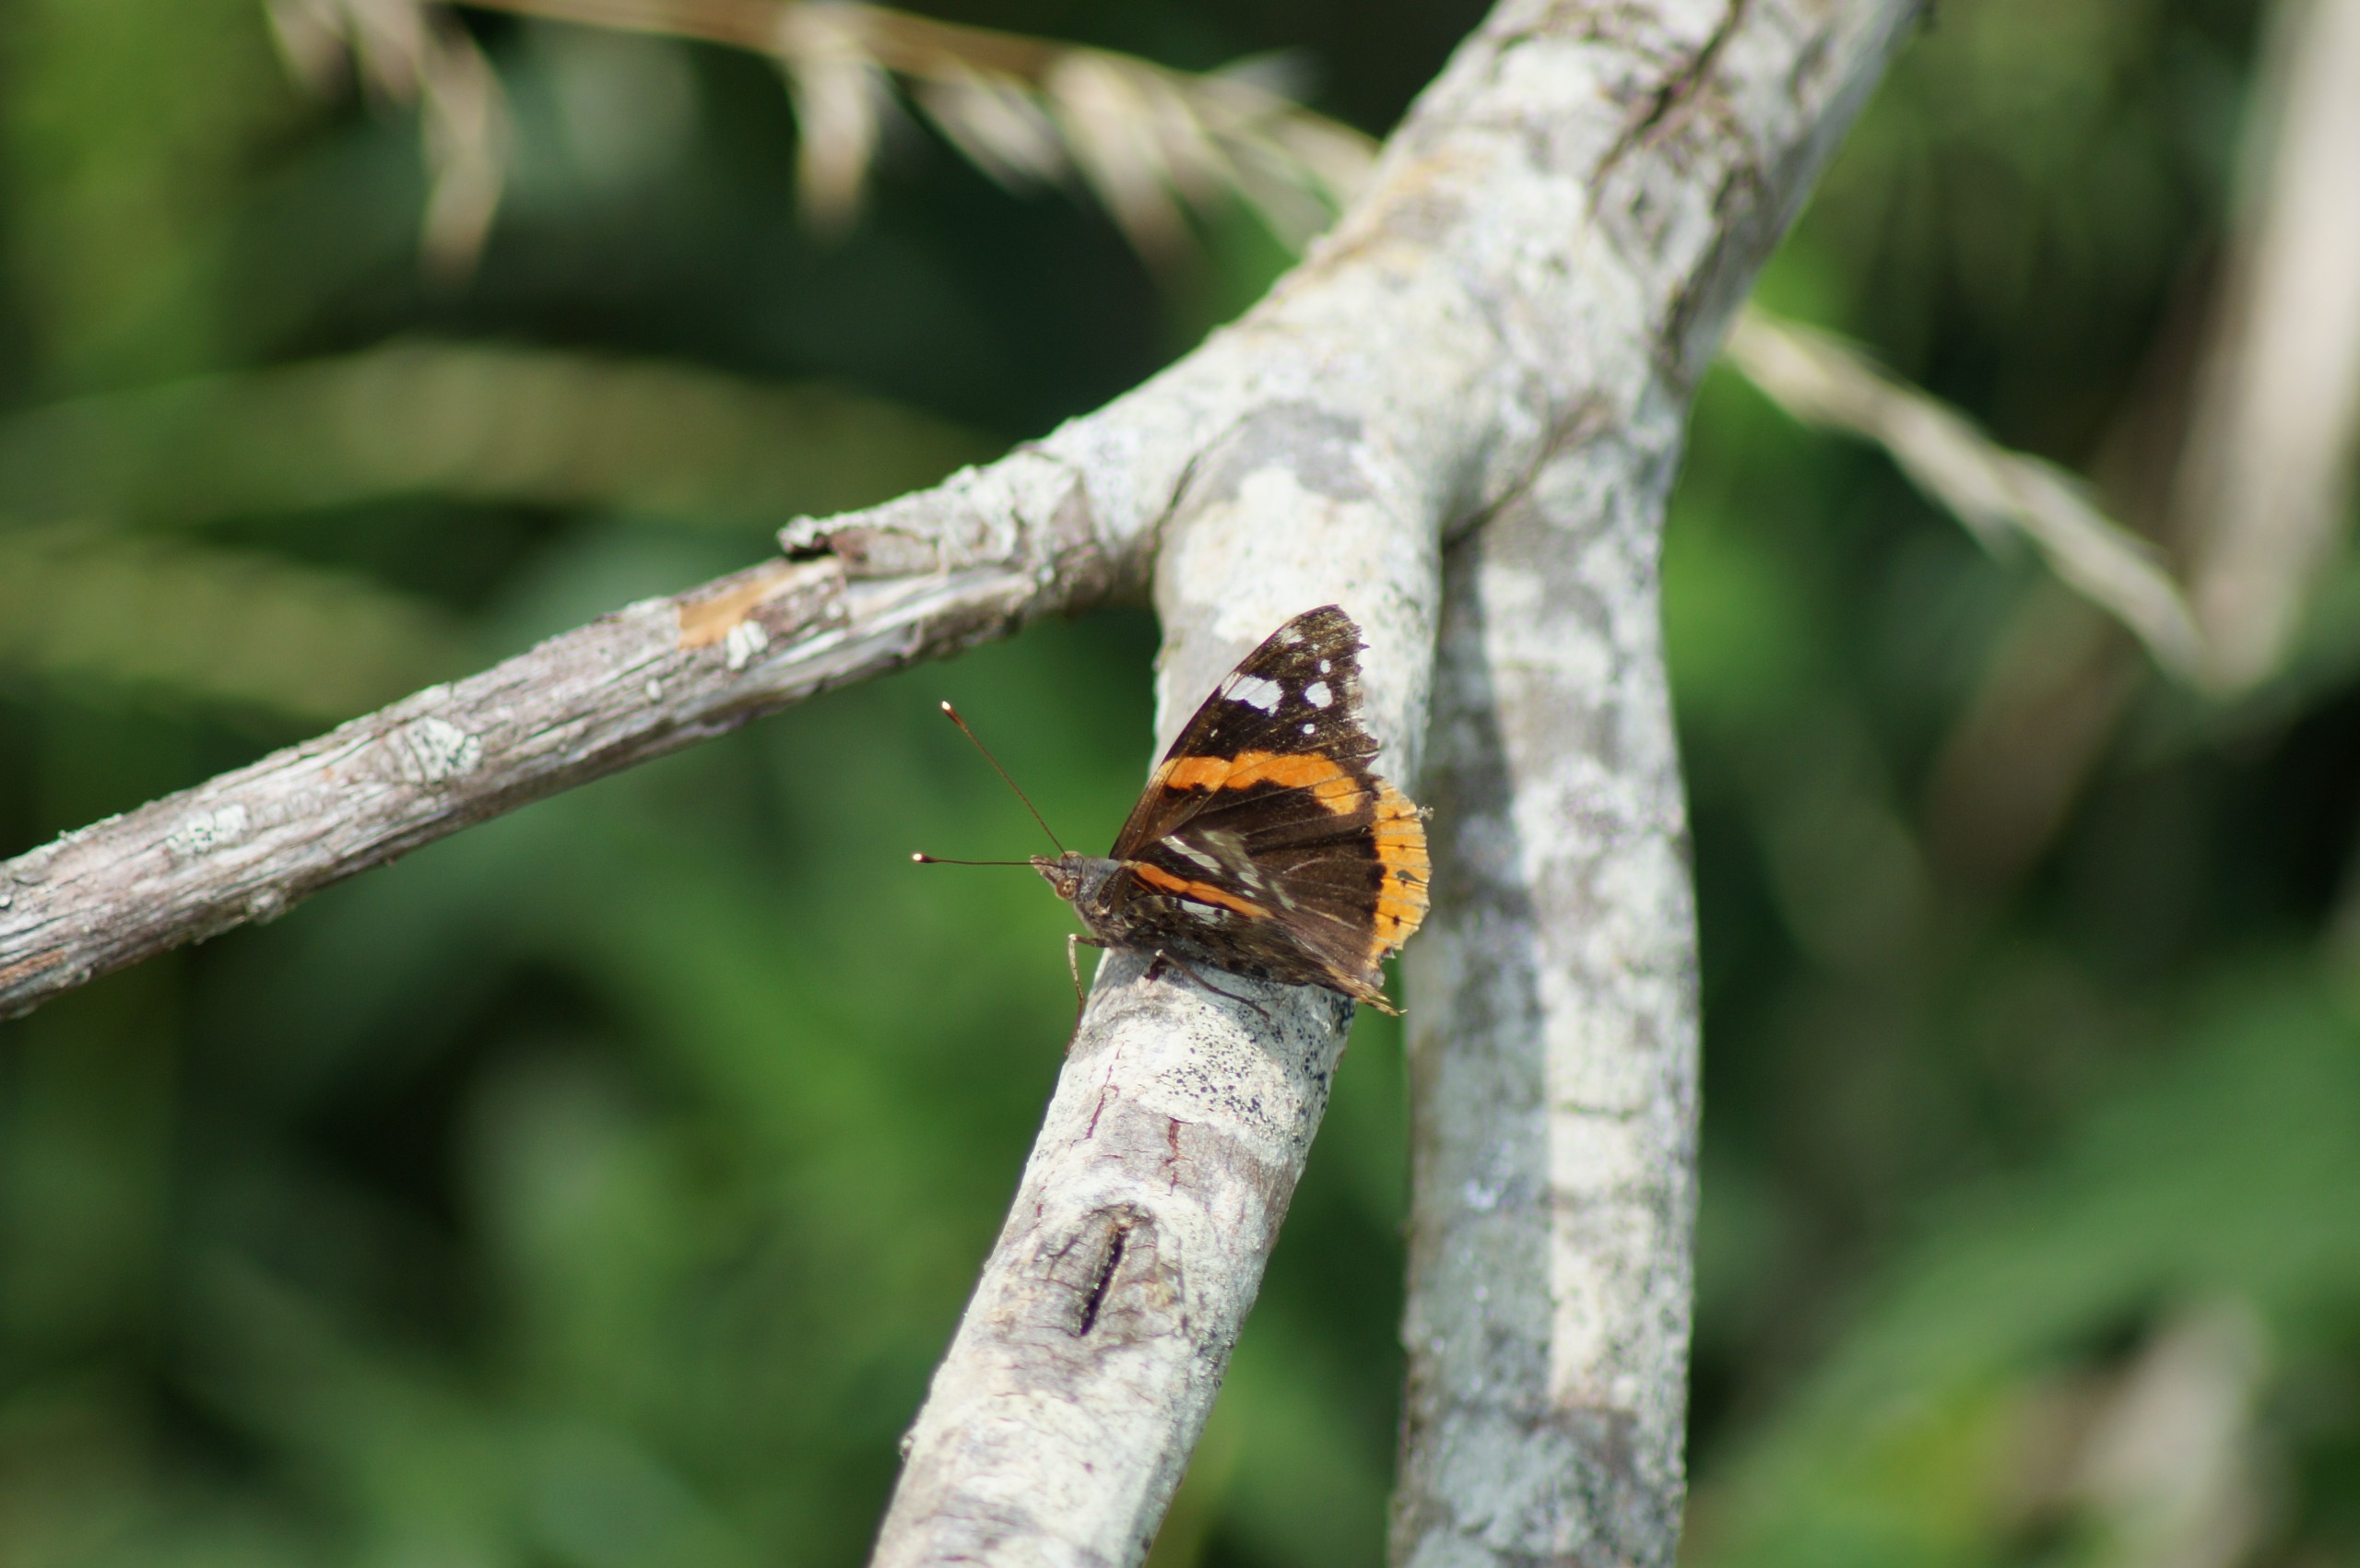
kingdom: Animalia
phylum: Arthropoda
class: Insecta
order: Lepidoptera
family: Nymphalidae
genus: Vanessa
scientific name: Vanessa atalanta
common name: Admiral
